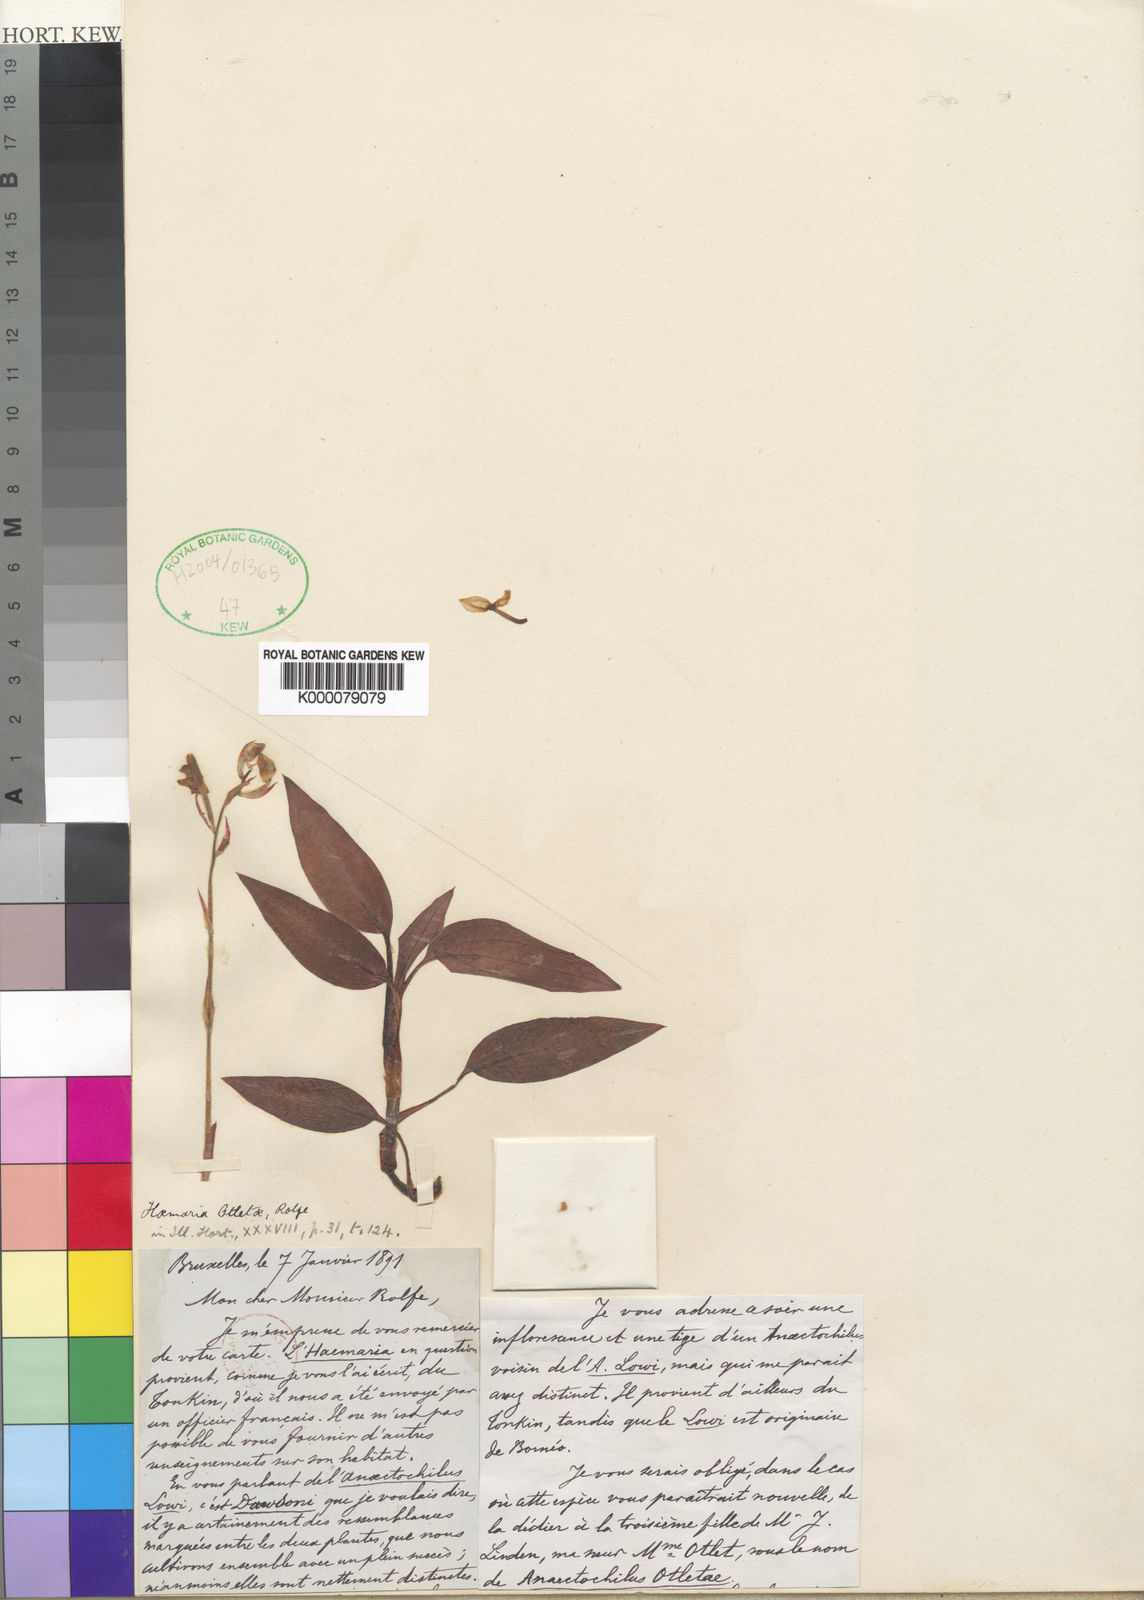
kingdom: Plantae
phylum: Tracheophyta
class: Liliopsida
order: Asparagales
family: Orchidaceae
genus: Ludisia
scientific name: Ludisia
